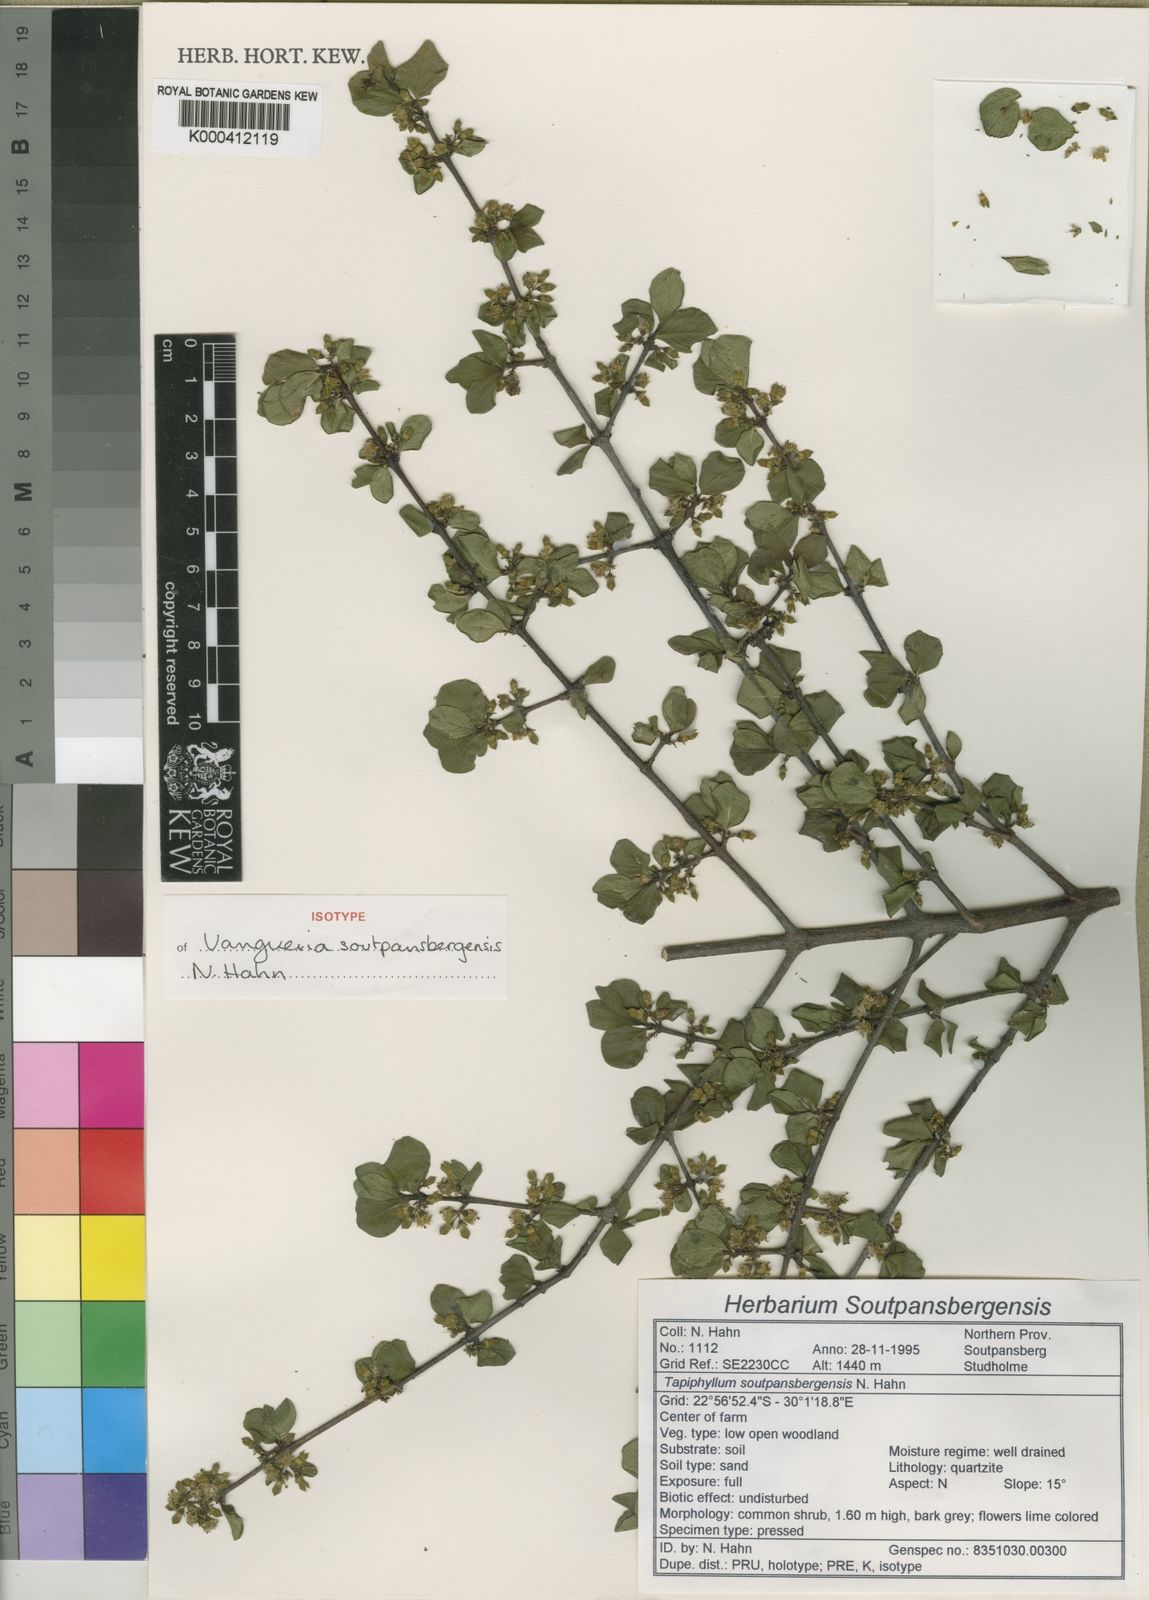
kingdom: Plantae
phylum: Tracheophyta
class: Magnoliopsida
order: Gentianales
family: Rubiaceae
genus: Vangueria
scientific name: Vangueria soutpansbergensis
